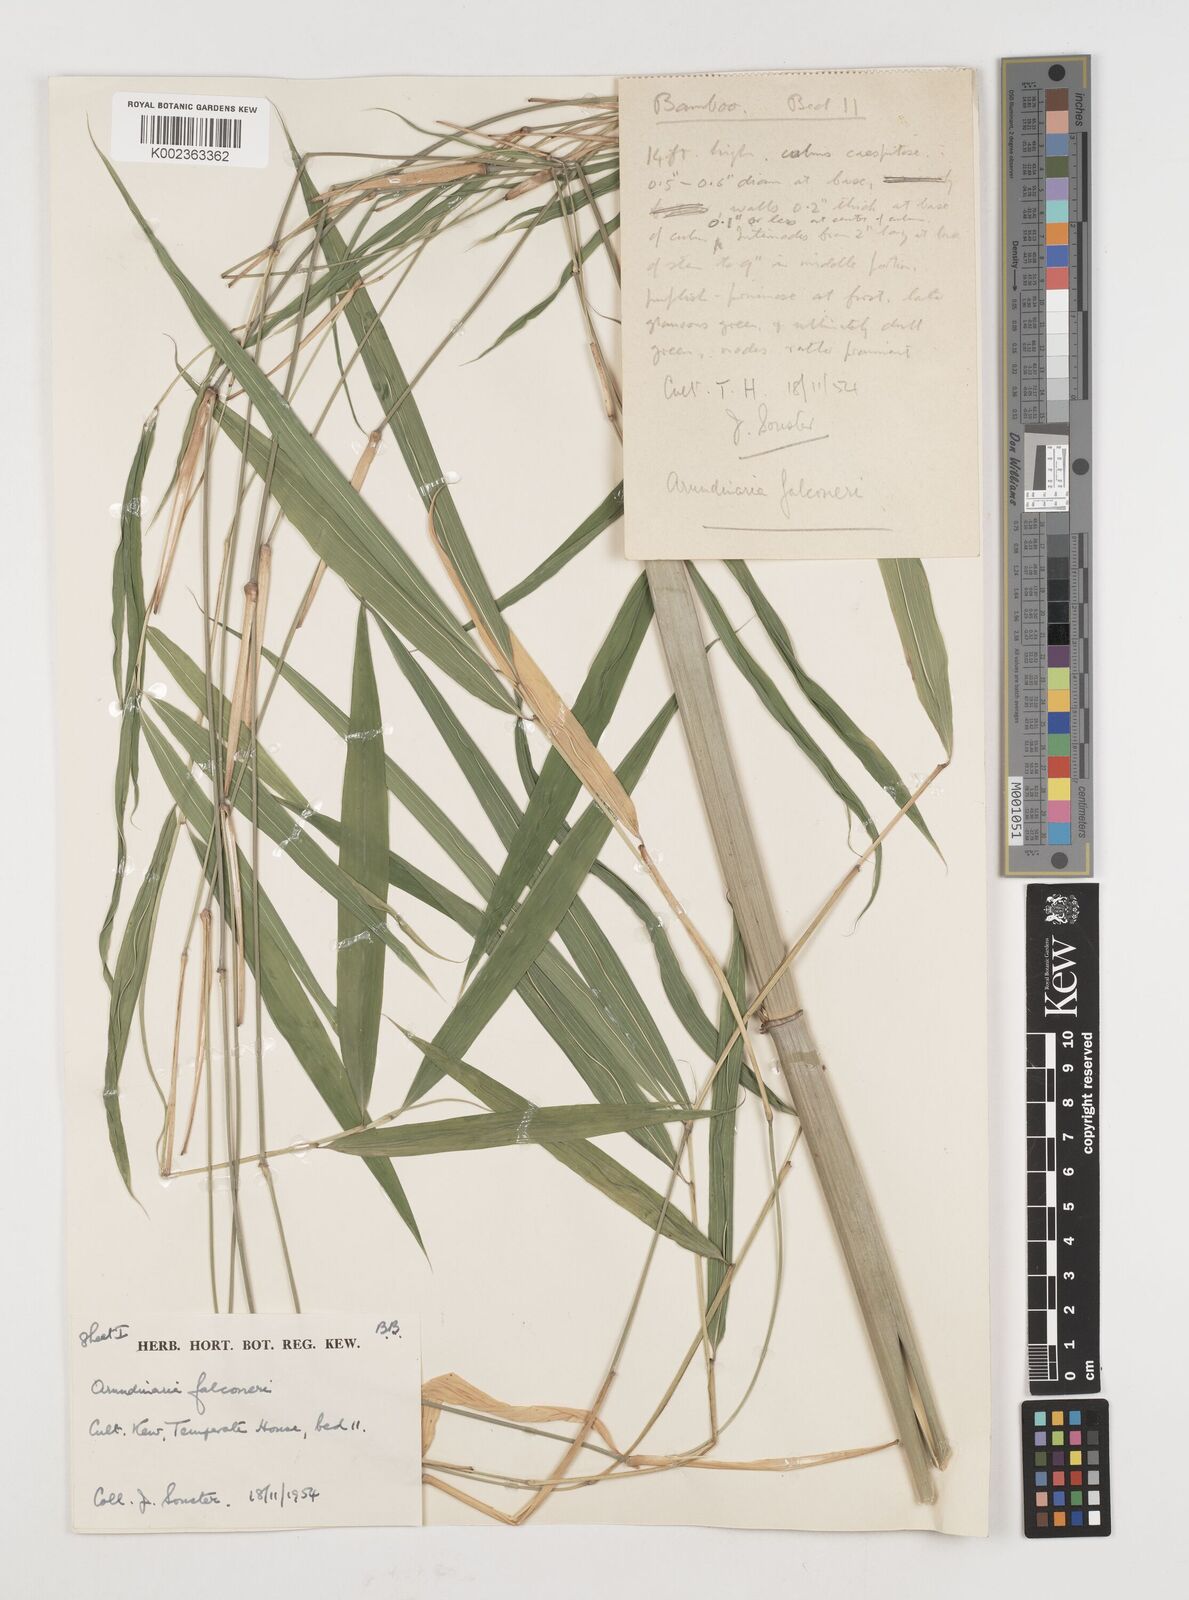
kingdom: Plantae
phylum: Tracheophyta
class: Liliopsida
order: Poales
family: Poaceae
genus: Himalayacalamus
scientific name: Himalayacalamus falconeri
